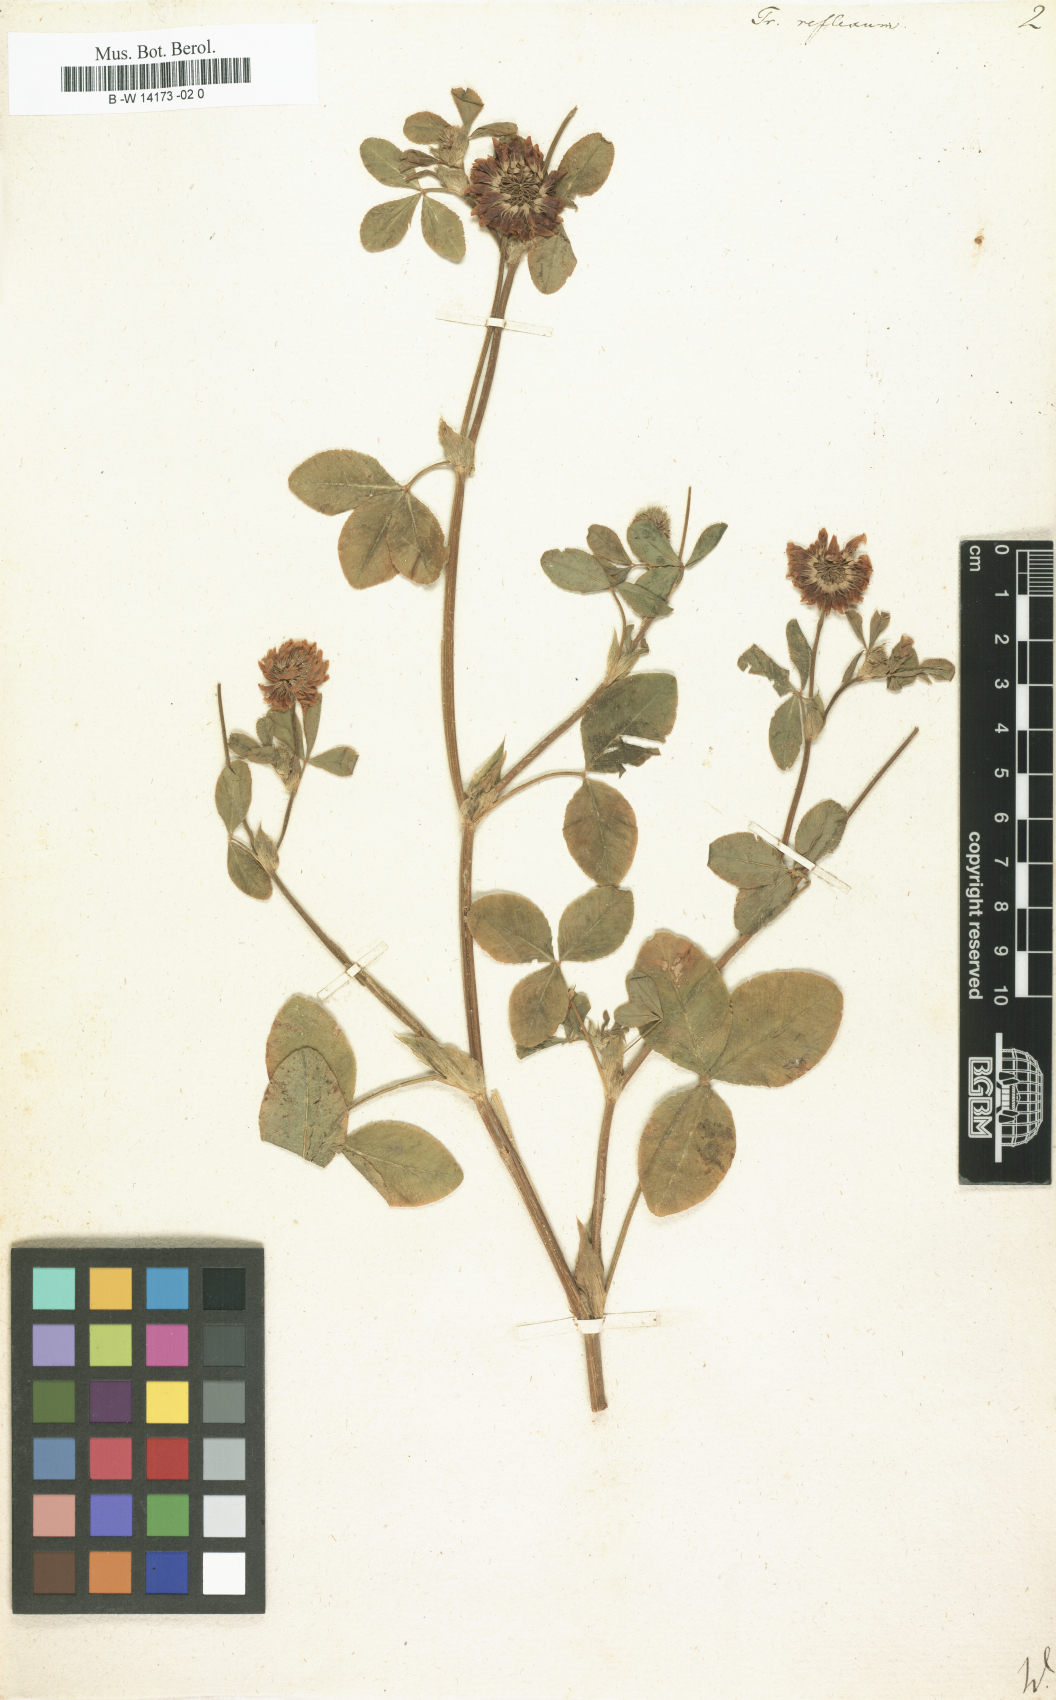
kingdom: Plantae
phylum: Tracheophyta
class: Magnoliopsida
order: Fabales
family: Fabaceae
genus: Trifolium
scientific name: Trifolium reflexum
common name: Buffalo clover
